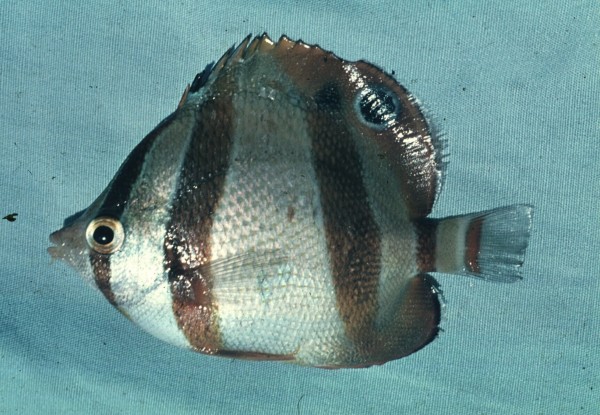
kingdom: Animalia
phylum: Chordata
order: Perciformes
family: Chaetodontidae
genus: Chaetodon
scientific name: Chaetodon marleyi
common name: Doubledash butterflyfish
